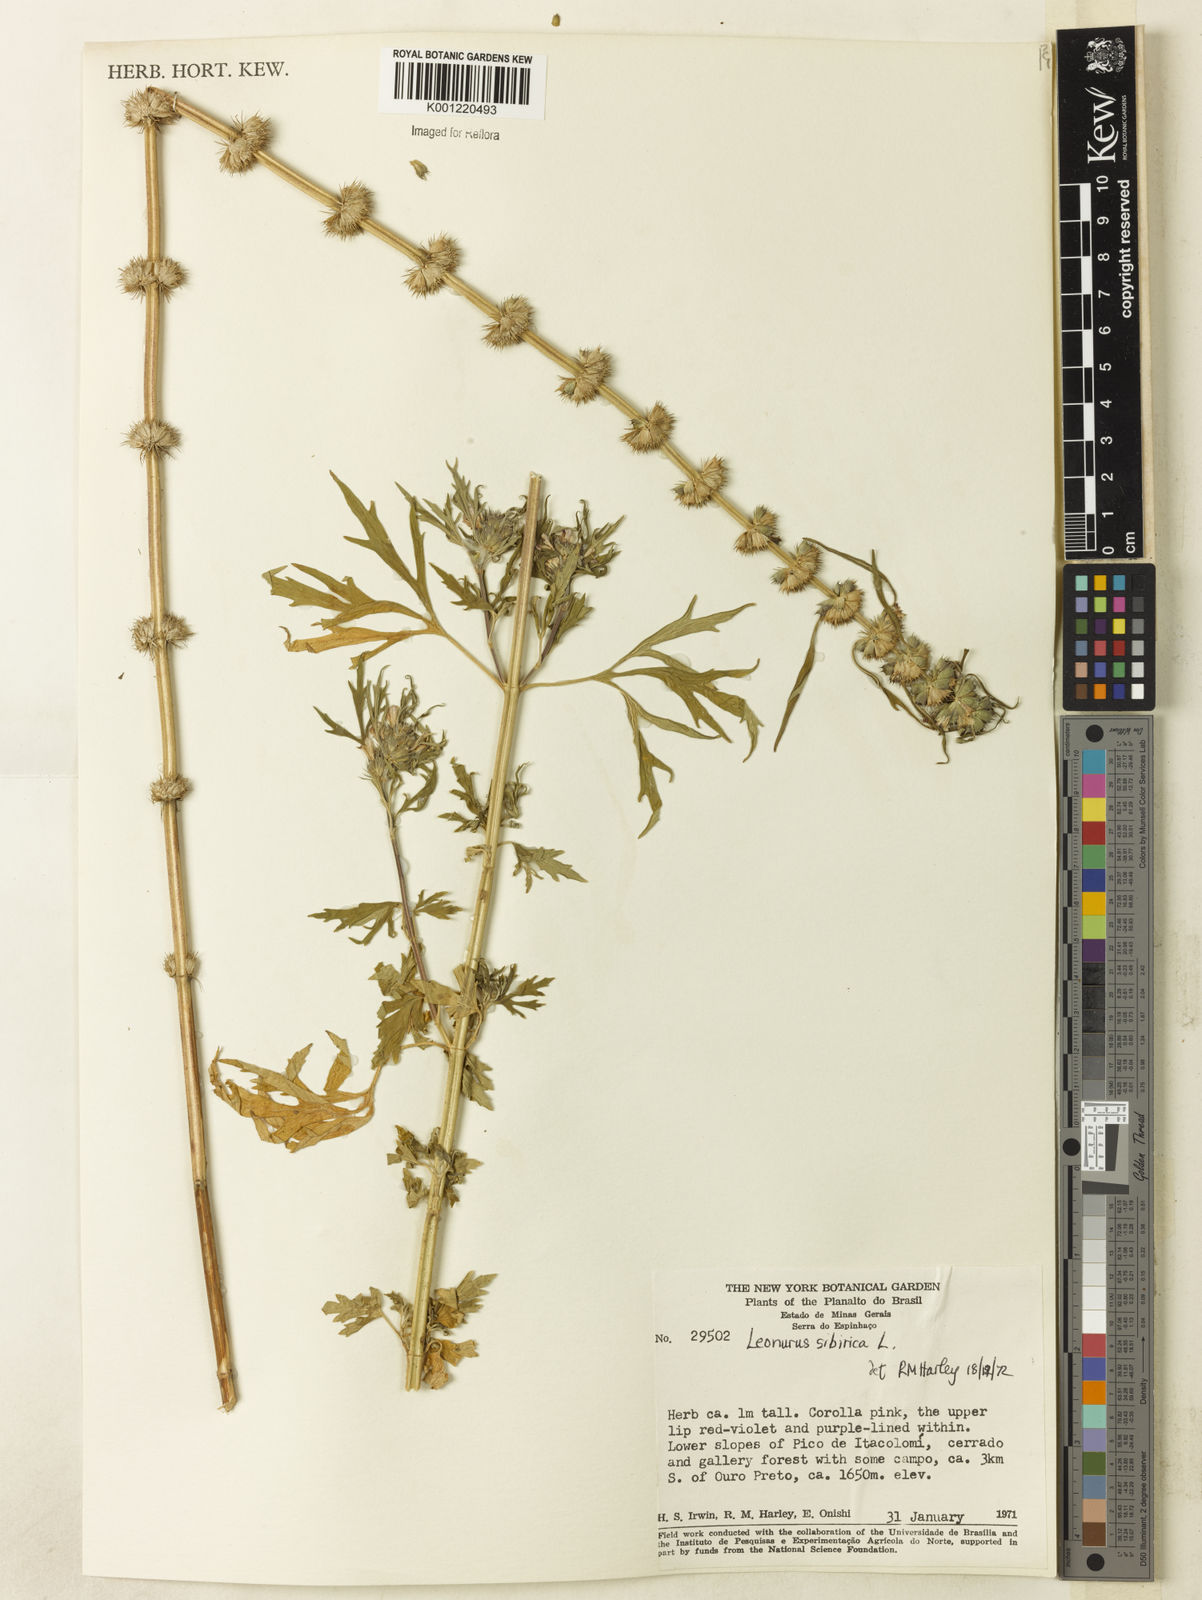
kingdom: Plantae
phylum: Tracheophyta
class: Magnoliopsida
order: Lamiales
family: Lamiaceae
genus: Leonurus
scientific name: Leonurus japonicus
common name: Honeyweed
